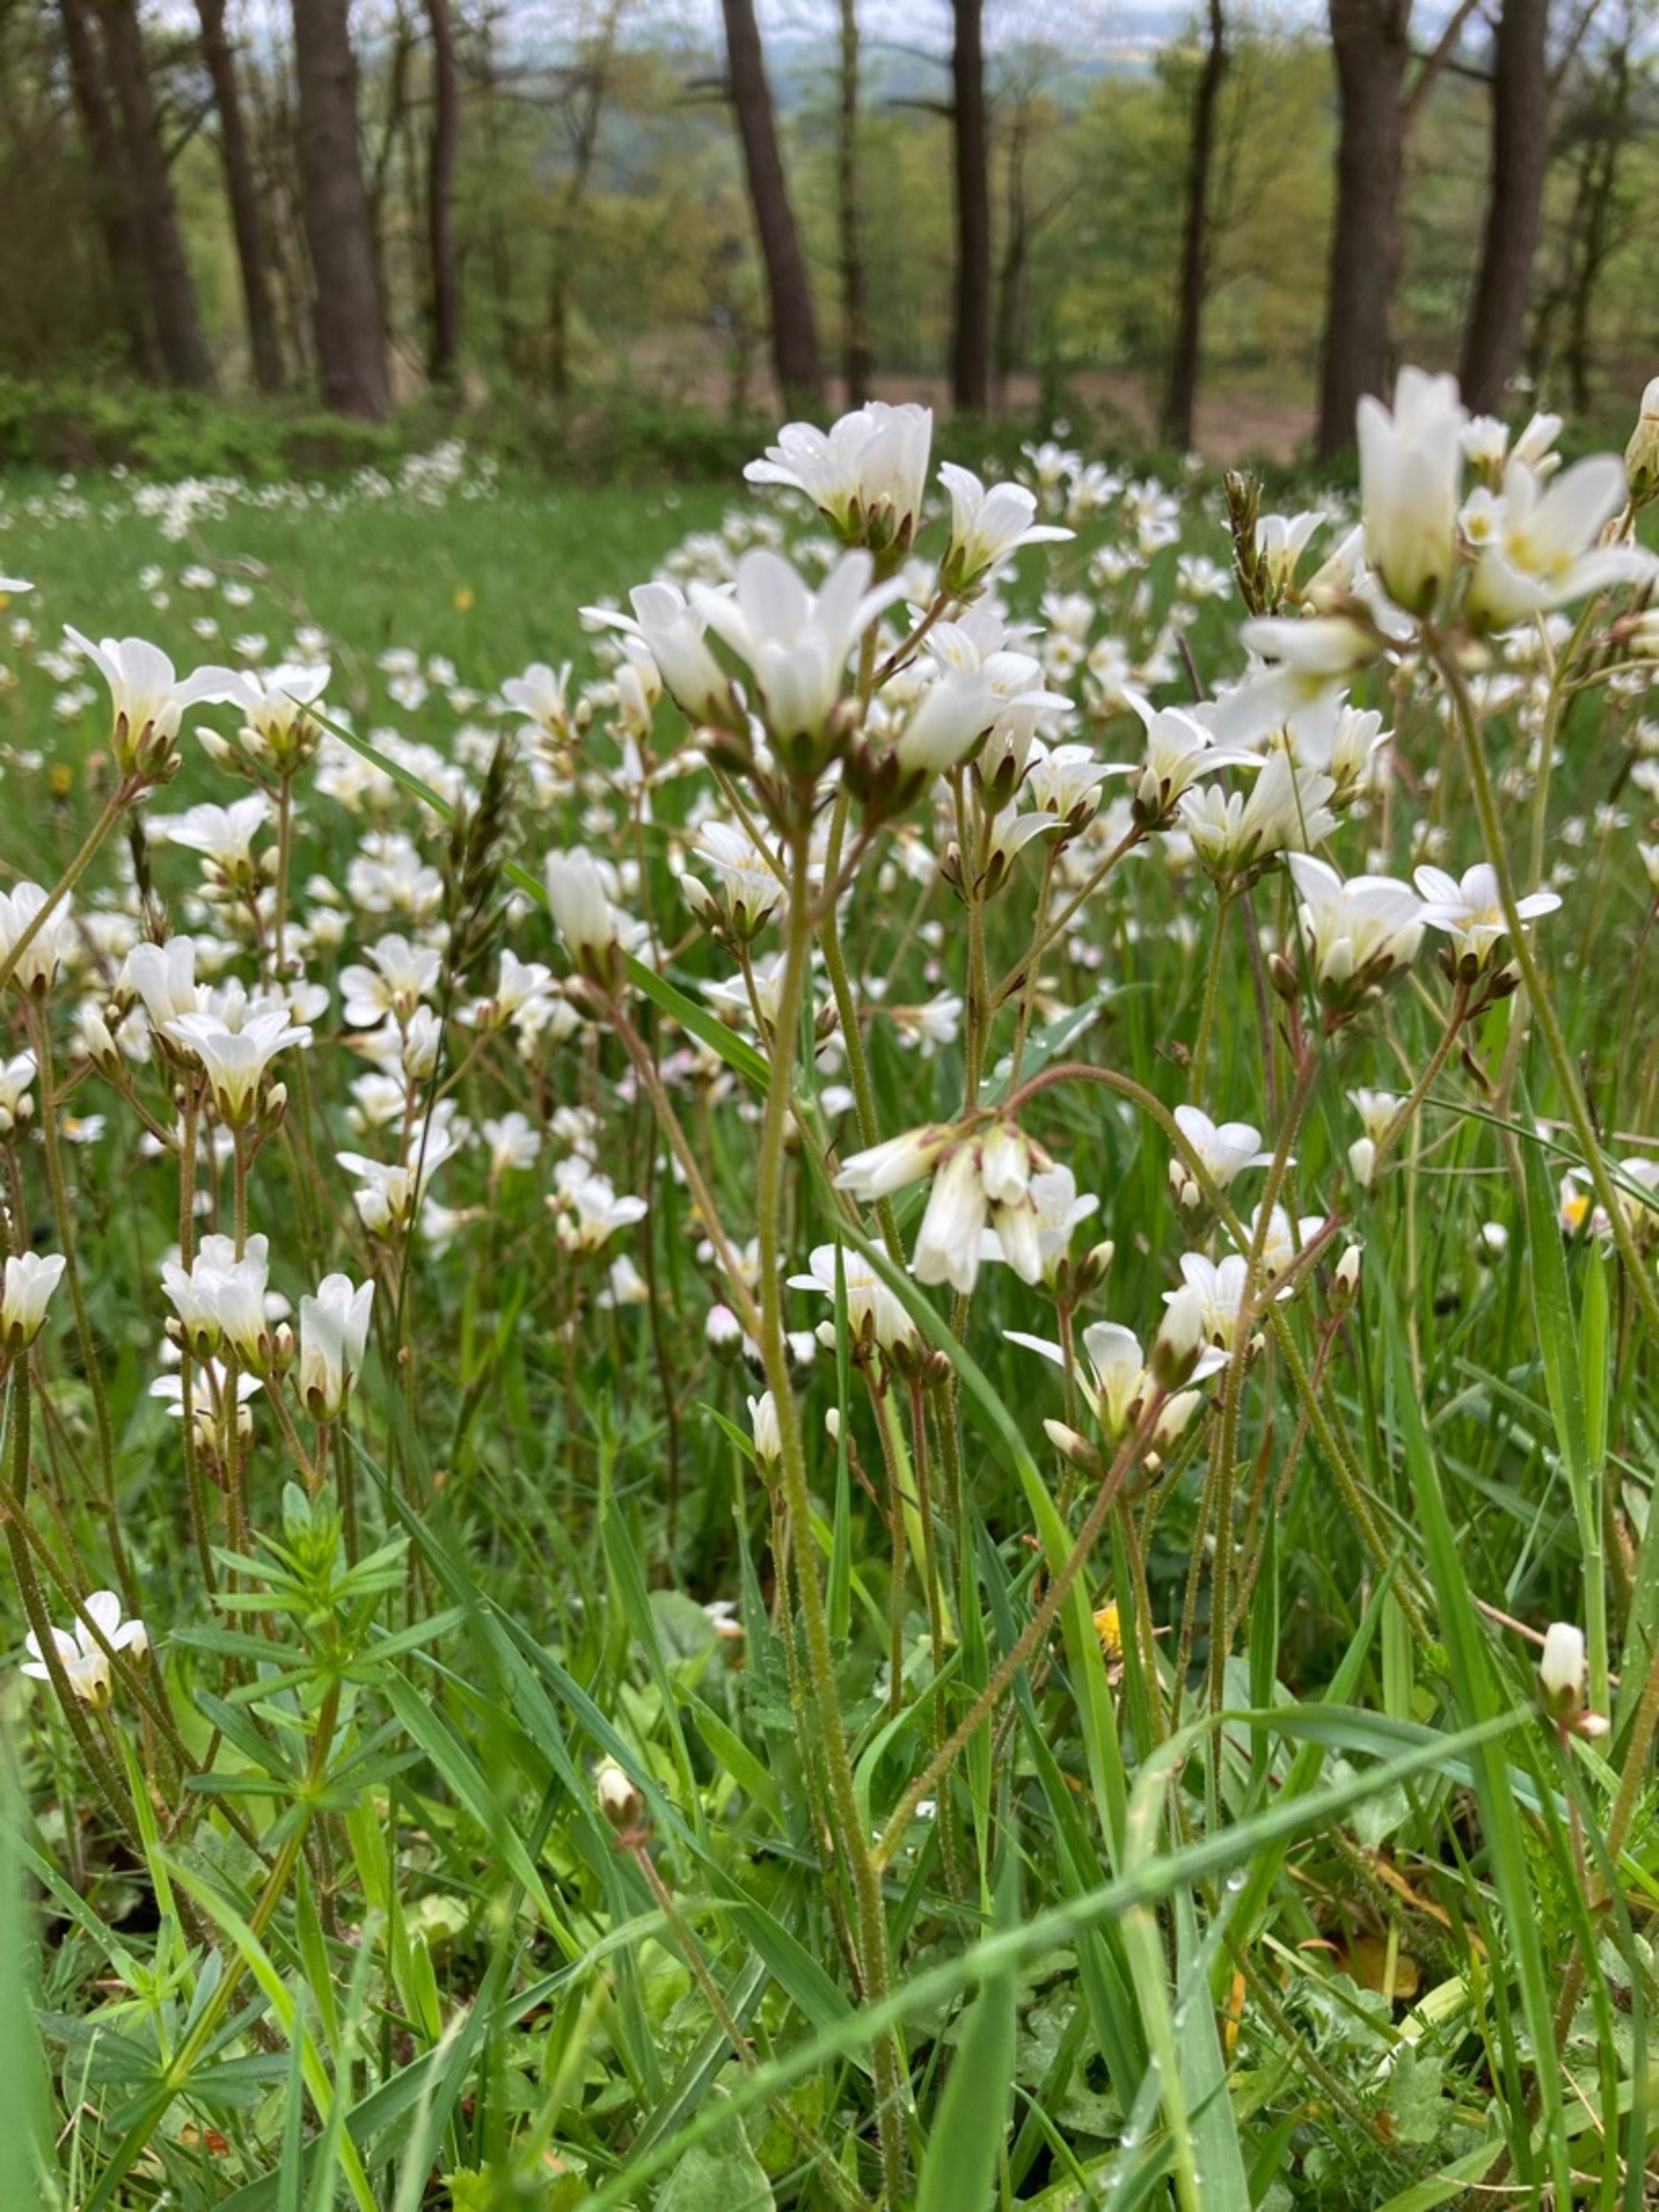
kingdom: Plantae
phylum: Tracheophyta
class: Magnoliopsida
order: Saxifragales
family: Saxifragaceae
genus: Saxifraga
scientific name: Saxifraga granulata
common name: Kornet stenbræk
